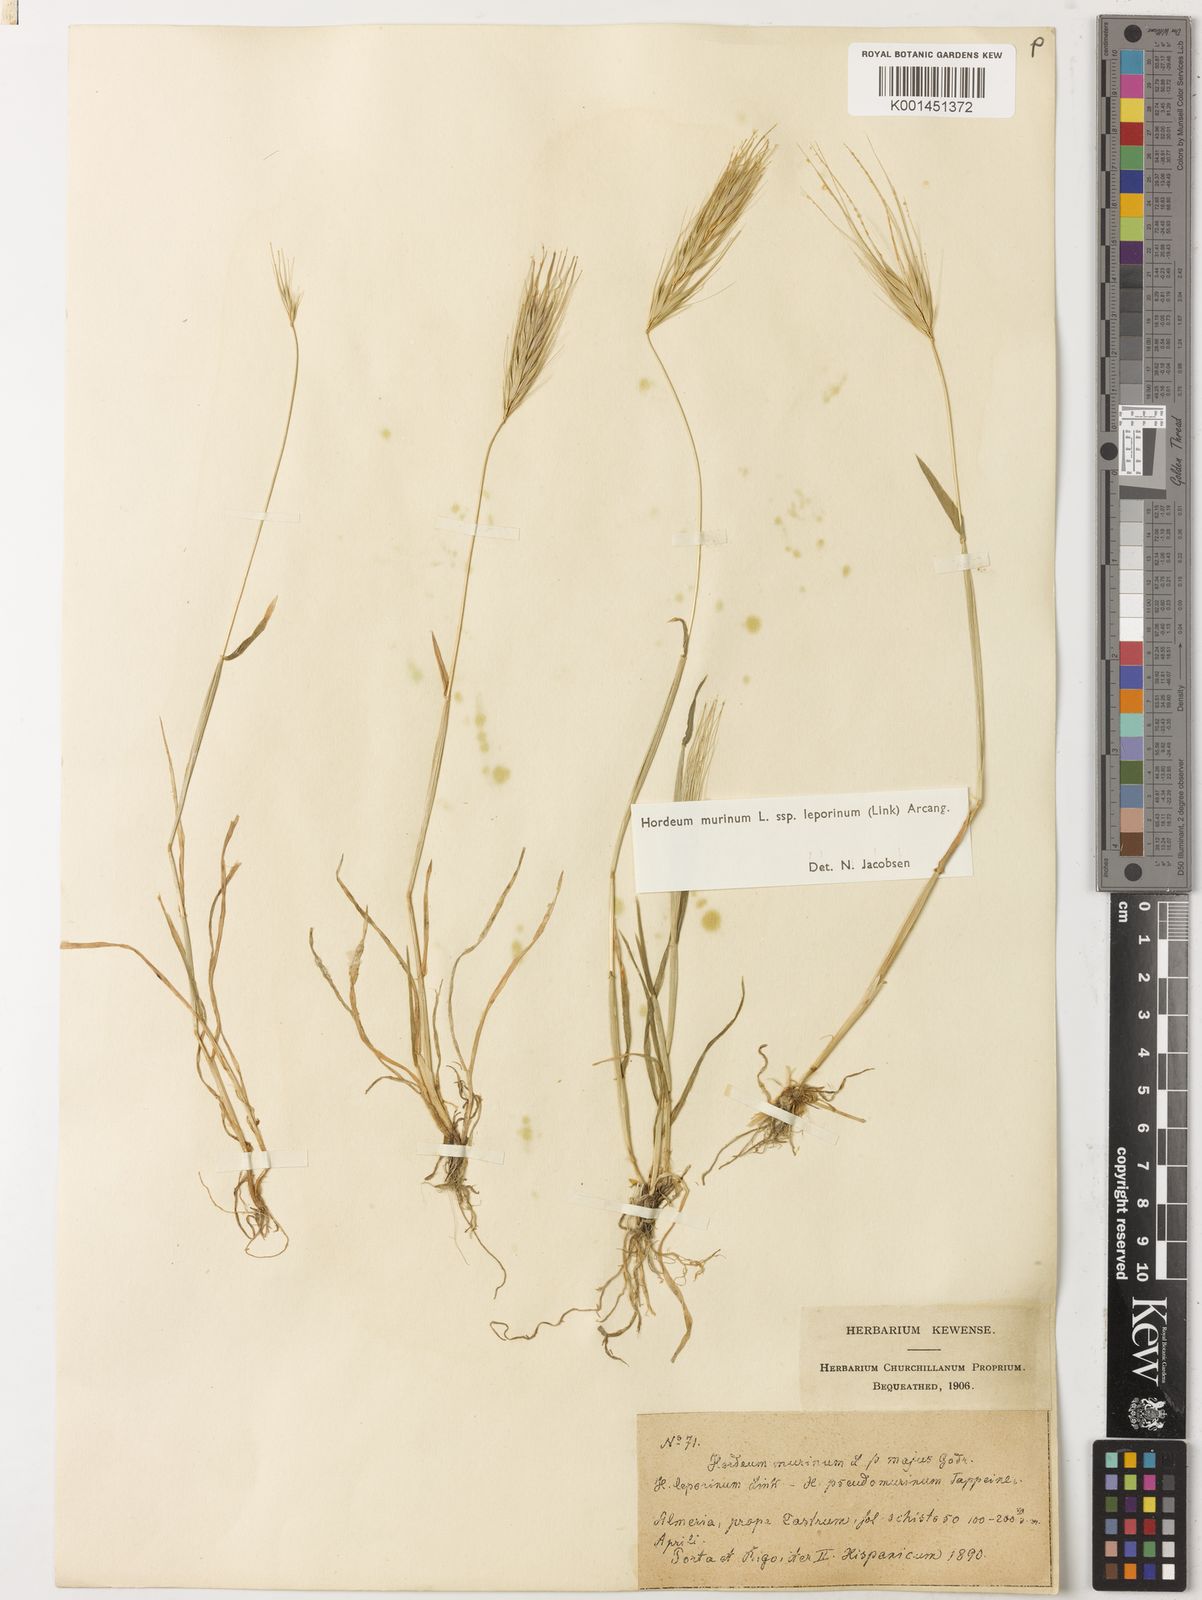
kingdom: Plantae
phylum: Tracheophyta
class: Liliopsida
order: Poales
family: Poaceae
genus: Hordeum
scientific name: Hordeum murinum
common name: Wall barley
